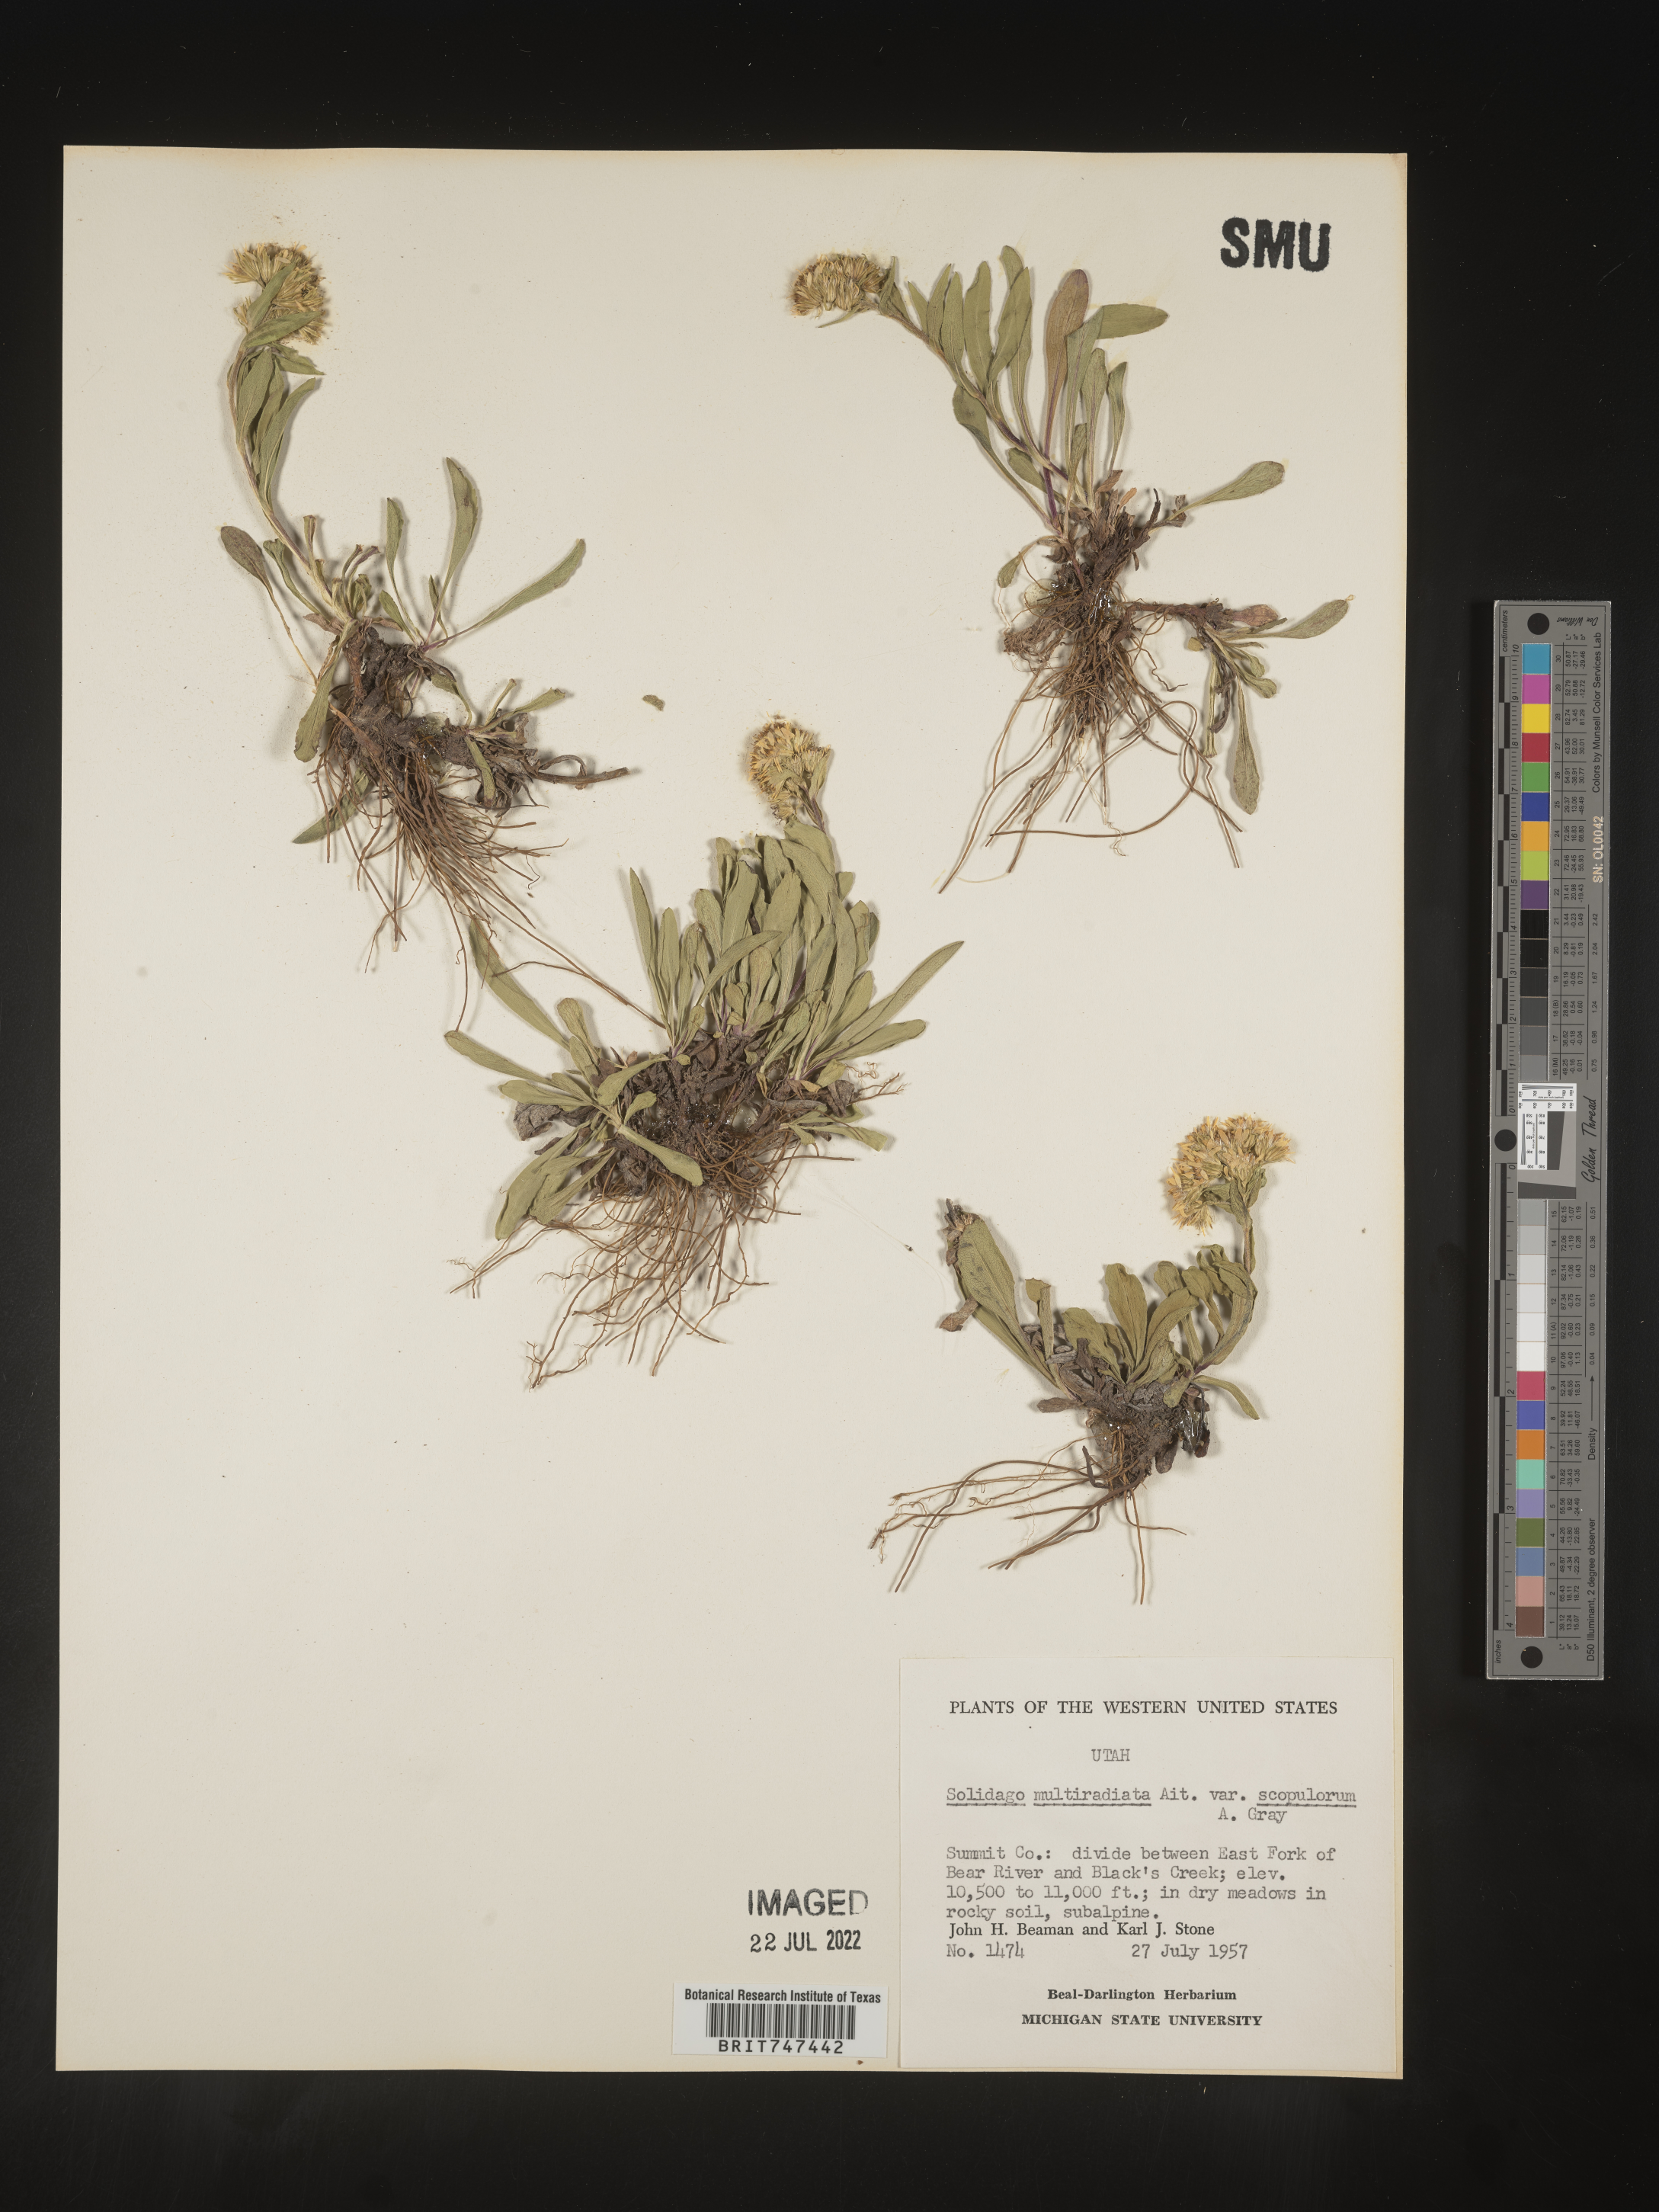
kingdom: Plantae
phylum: Tracheophyta
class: Magnoliopsida
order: Asterales
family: Asteraceae
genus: Solidago
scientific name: Solidago multiradiata
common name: Northern goldenrod
